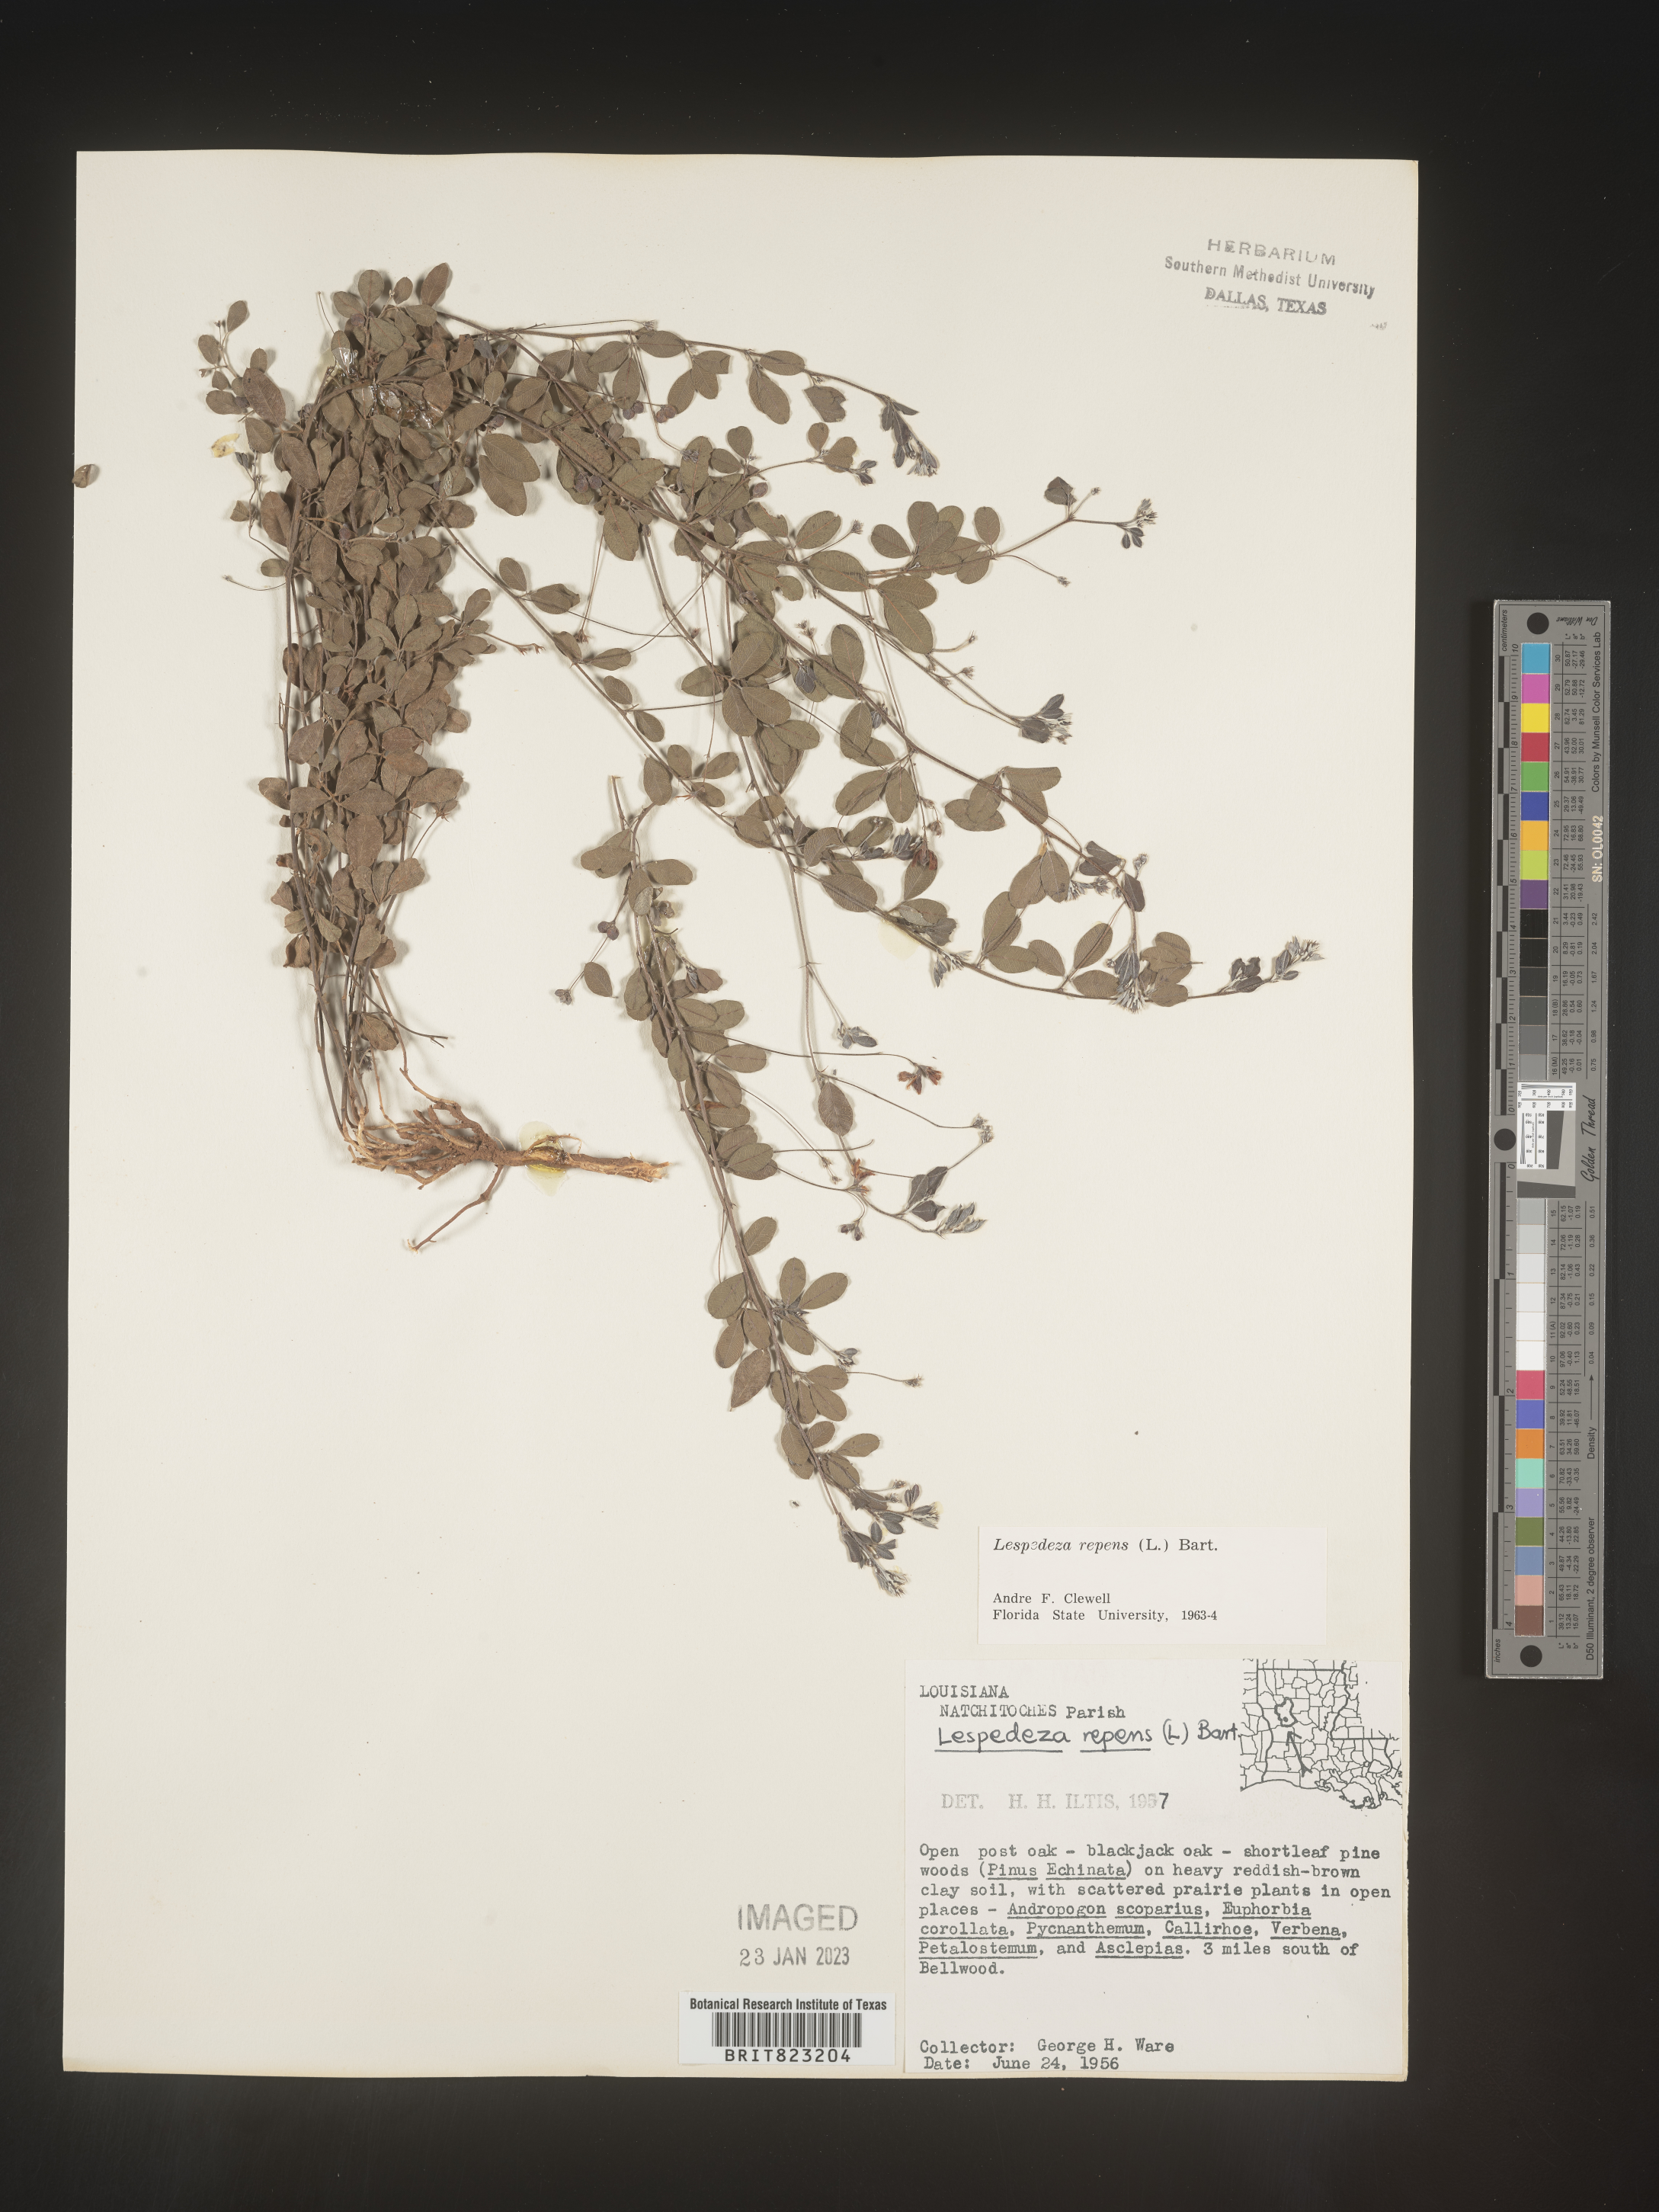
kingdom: Plantae
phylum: Tracheophyta
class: Magnoliopsida
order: Fabales
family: Fabaceae
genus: Lespedeza
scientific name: Lespedeza repens
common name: Creeping bush-clover
